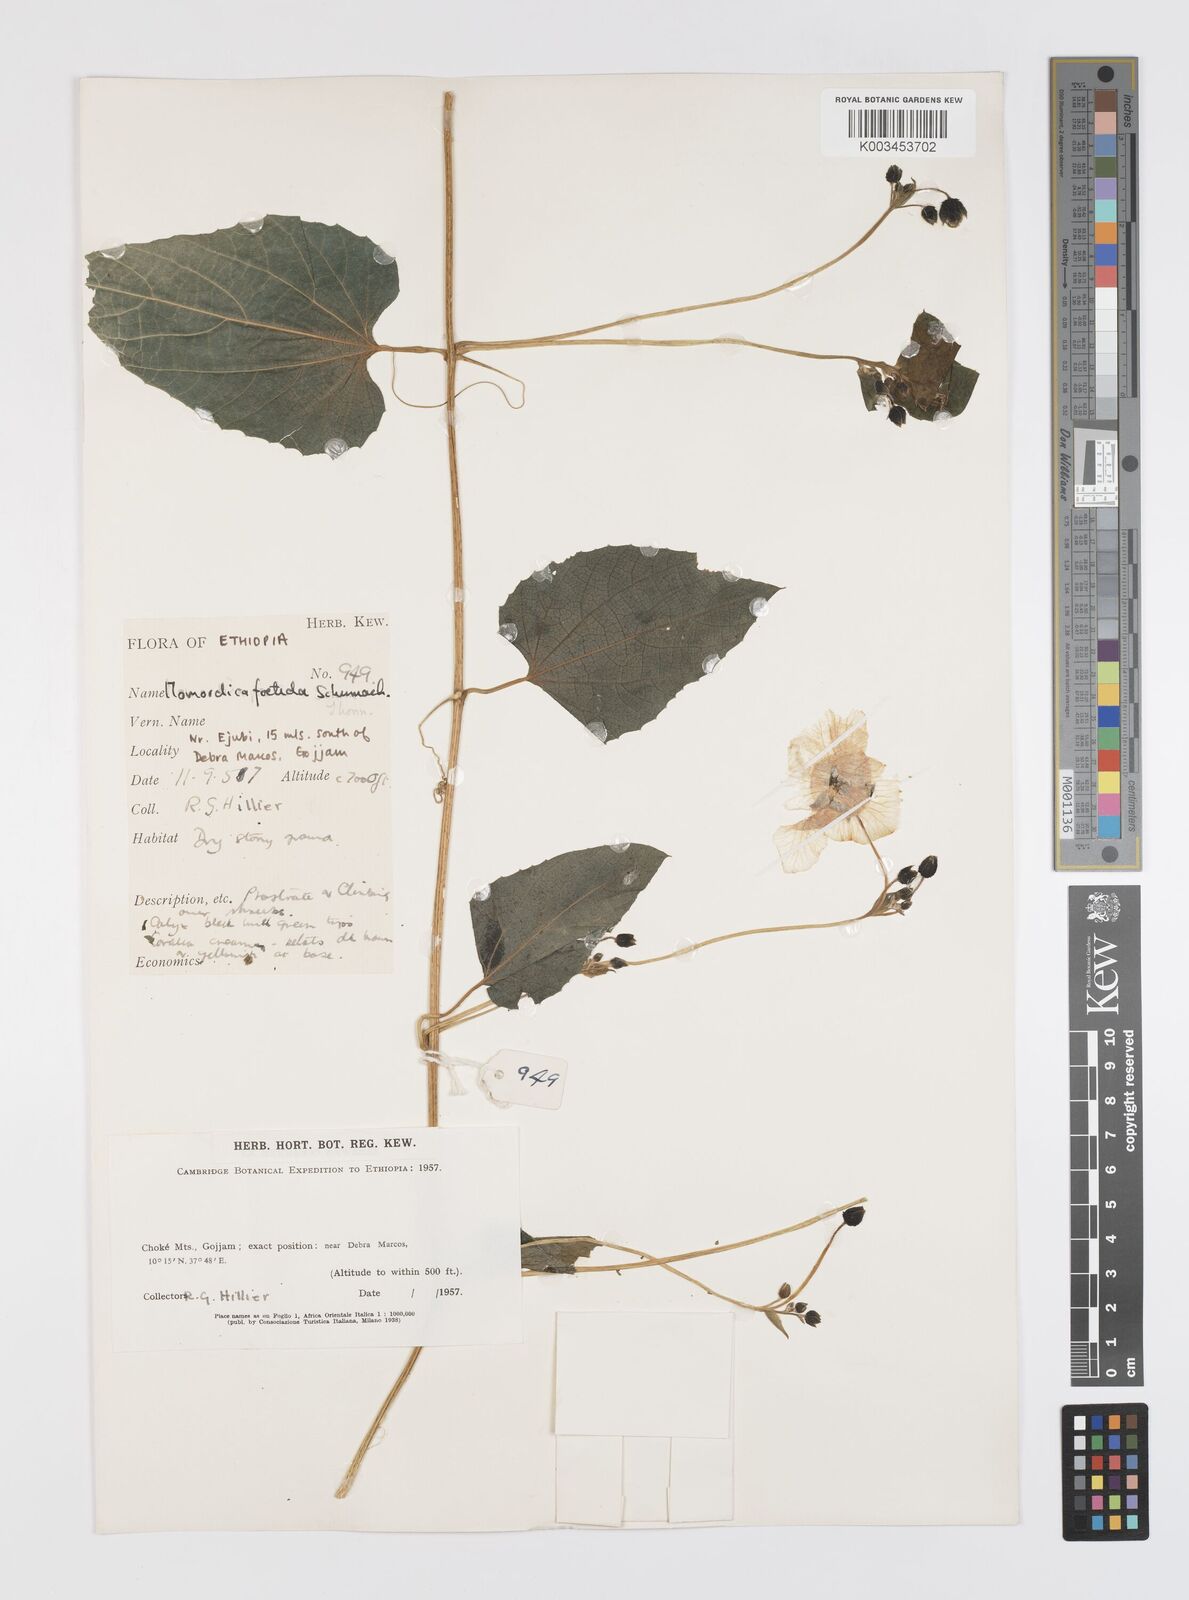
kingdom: Plantae
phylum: Tracheophyta
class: Magnoliopsida
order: Cucurbitales
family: Cucurbitaceae
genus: Momordica
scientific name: Momordica foetida
